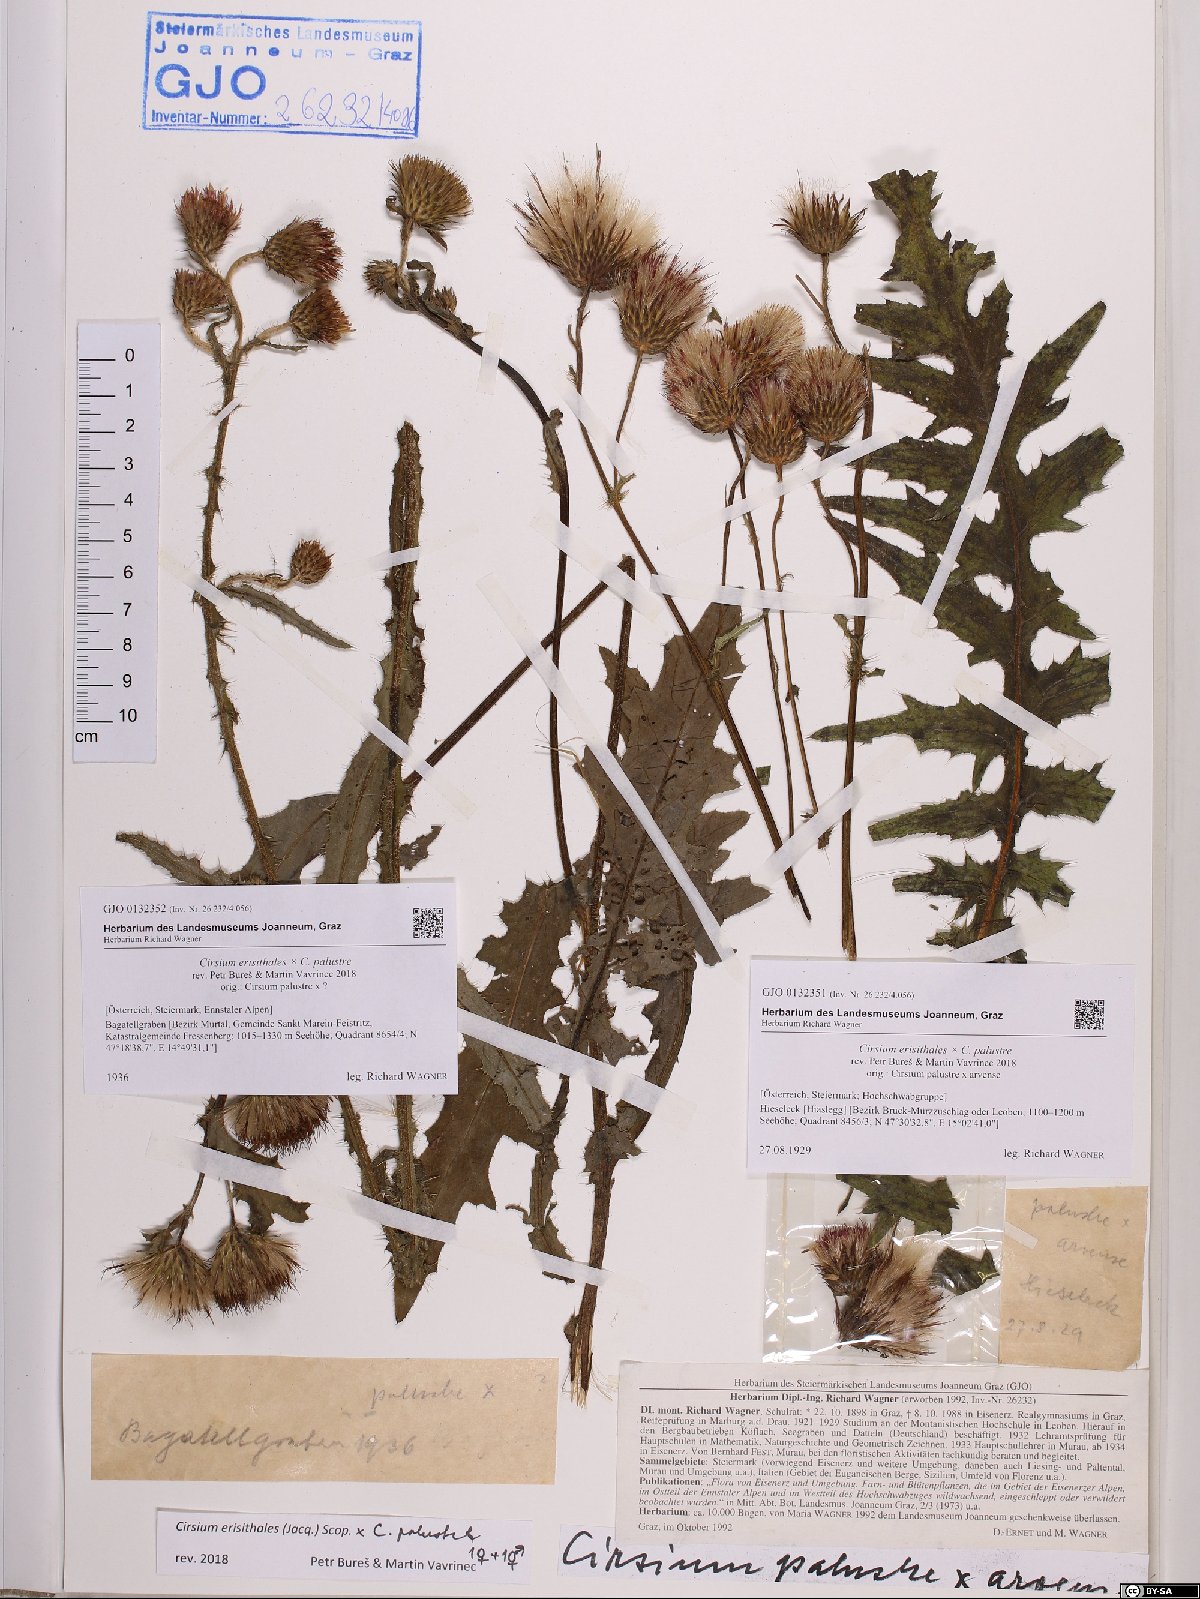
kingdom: Plantae
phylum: Tracheophyta
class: Magnoliopsida
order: Asterales
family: Asteraceae
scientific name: Asteraceae
